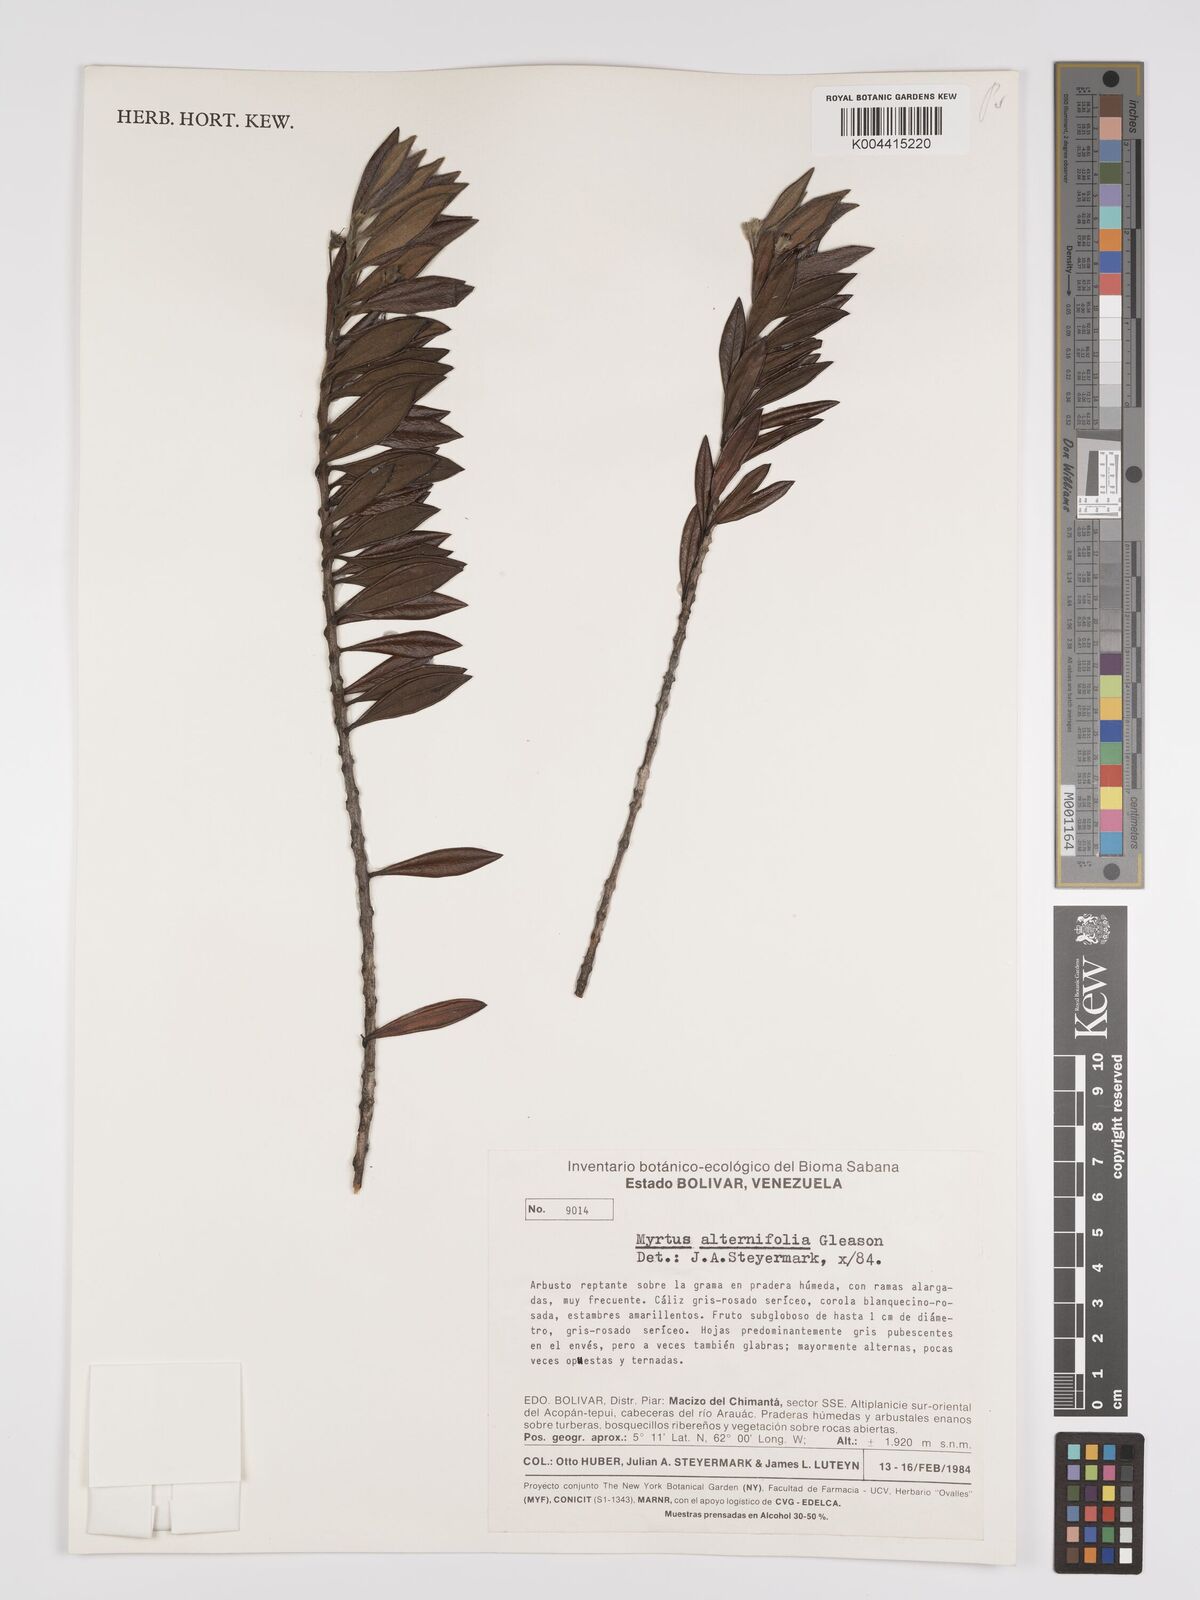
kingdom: Plantae
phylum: Tracheophyta
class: Magnoliopsida
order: Myrtales
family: Myrtaceae
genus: Calycolpus
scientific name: Calycolpus alternifolius
